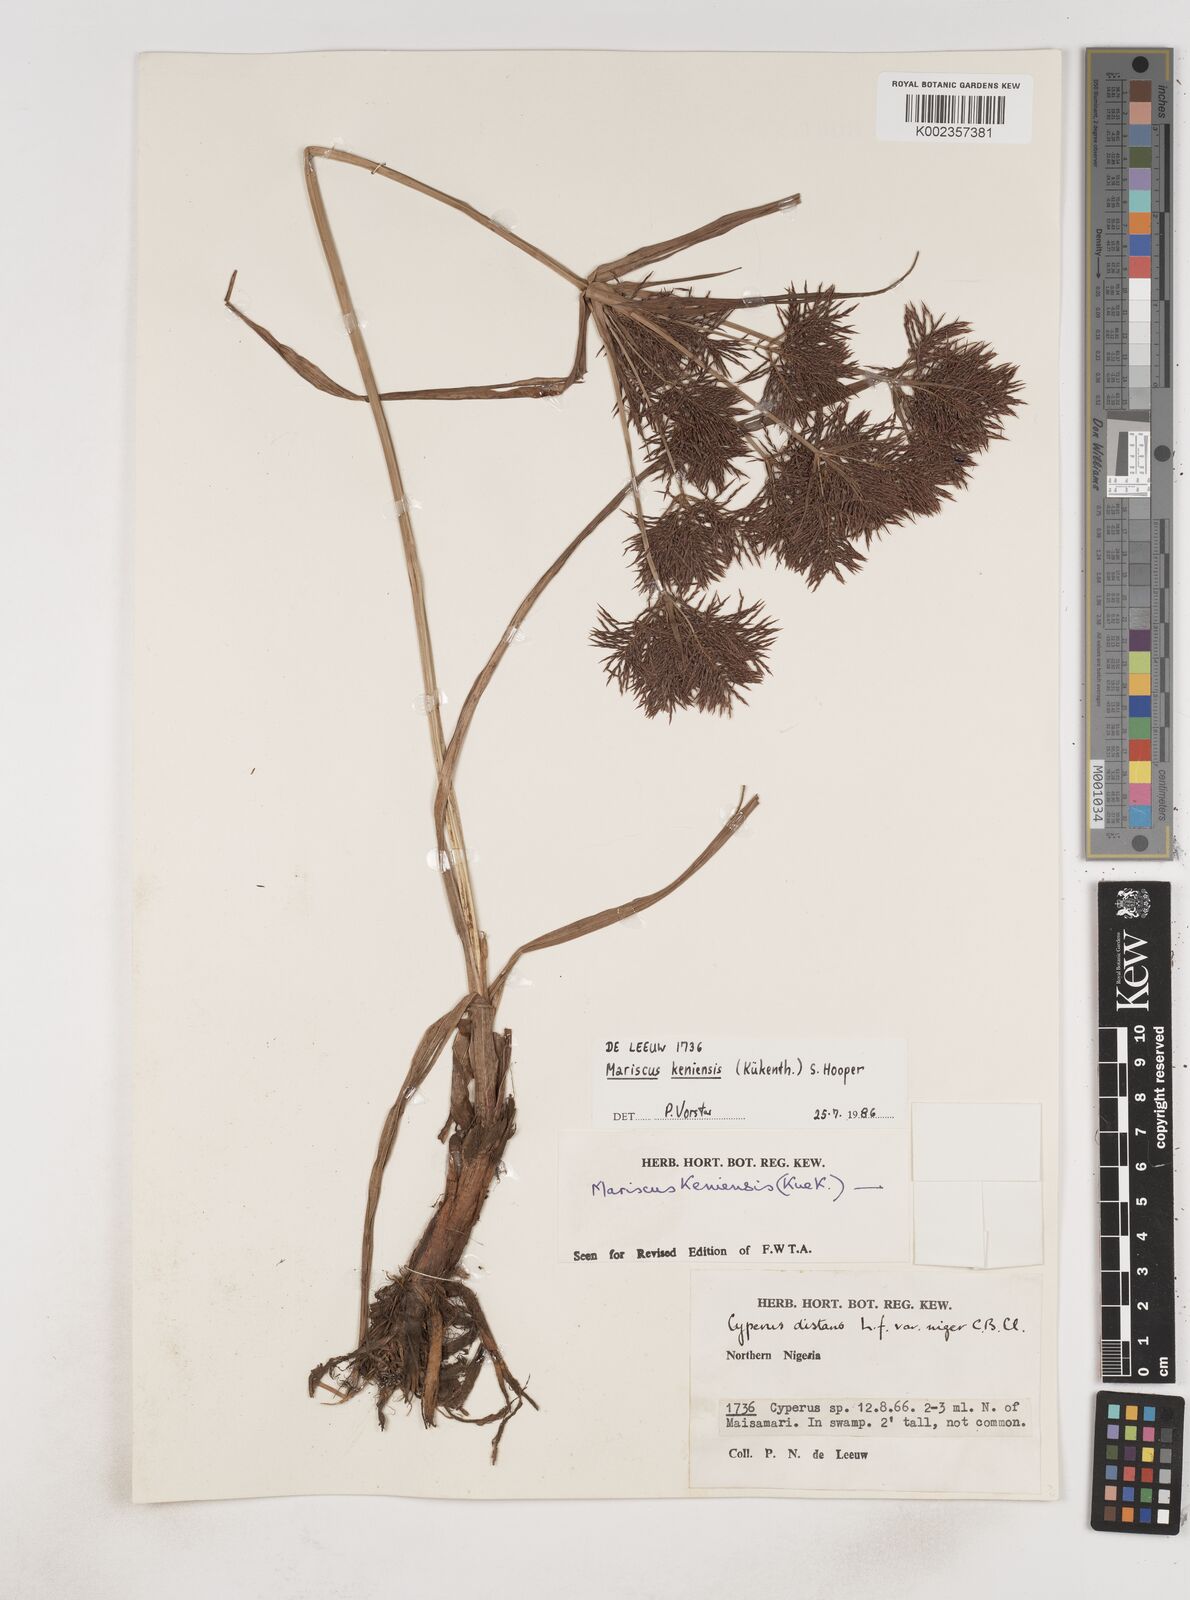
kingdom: Plantae
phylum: Tracheophyta
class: Liliopsida
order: Poales
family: Cyperaceae
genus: Cyperus
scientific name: Cyperus distans
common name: Slender cyperus
